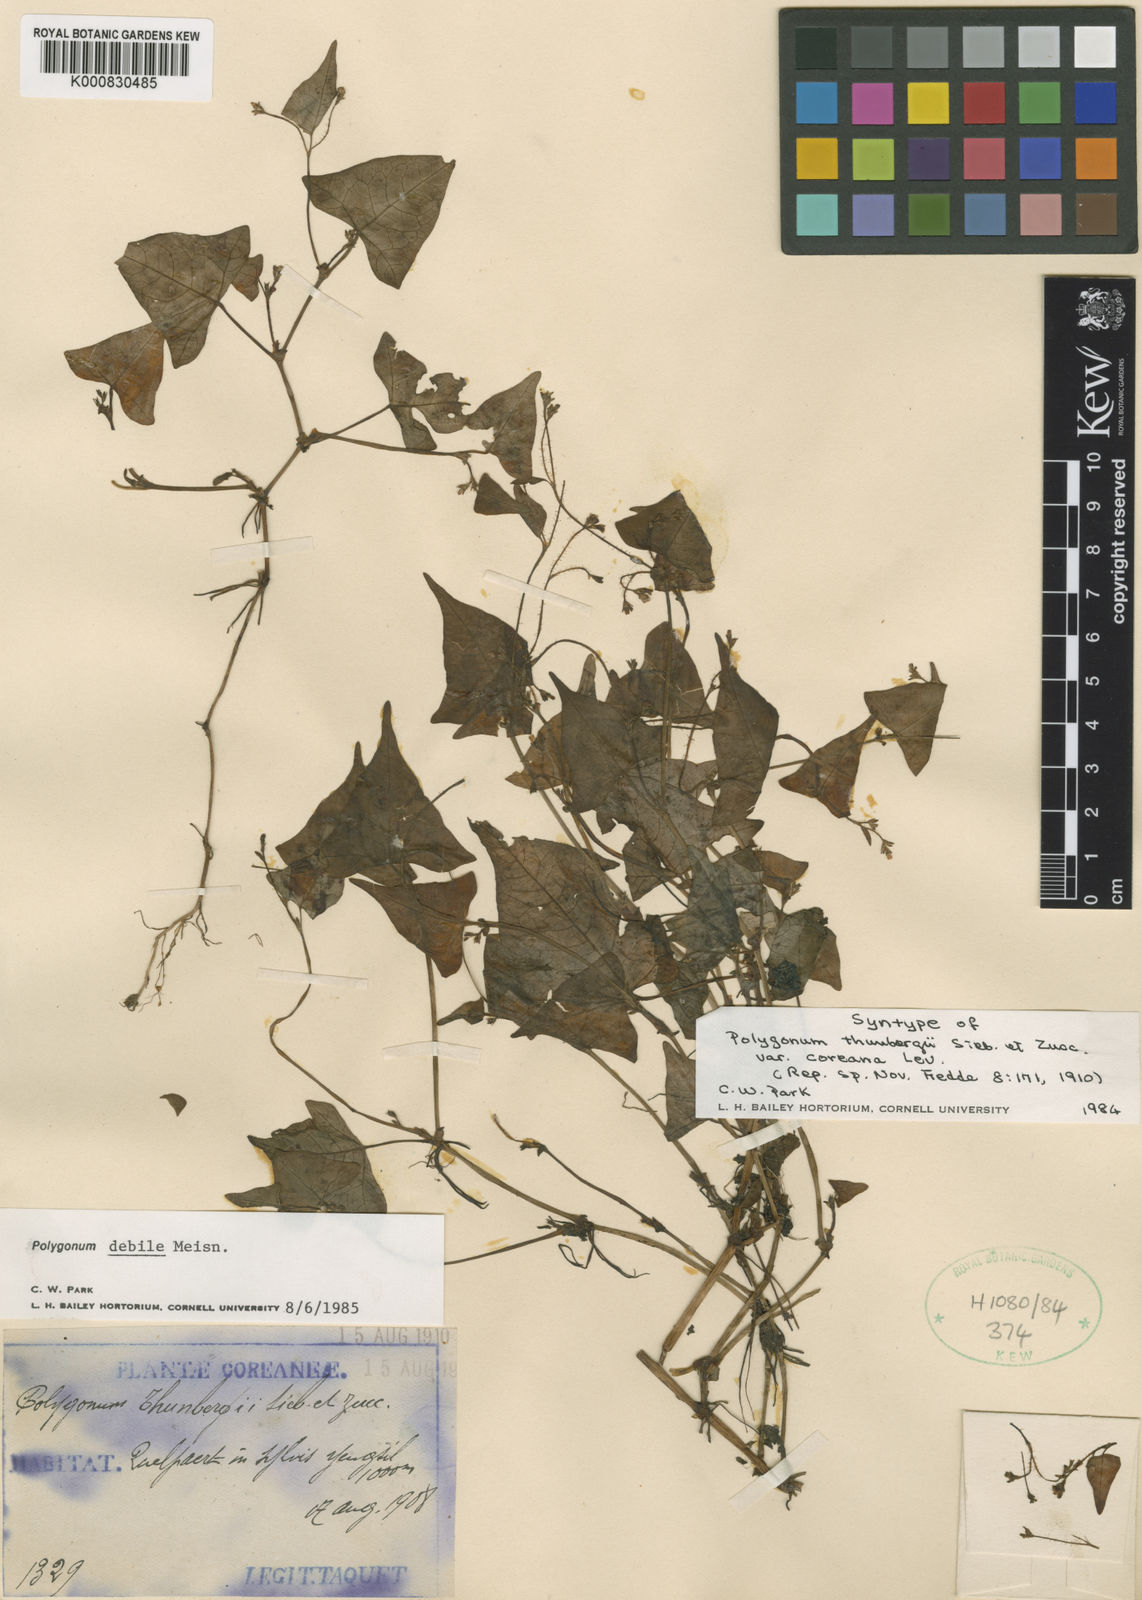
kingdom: Plantae
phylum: Tracheophyta
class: Magnoliopsida
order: Caryophyllales
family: Polygonaceae
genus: Persicaria
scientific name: Persicaria debilis
